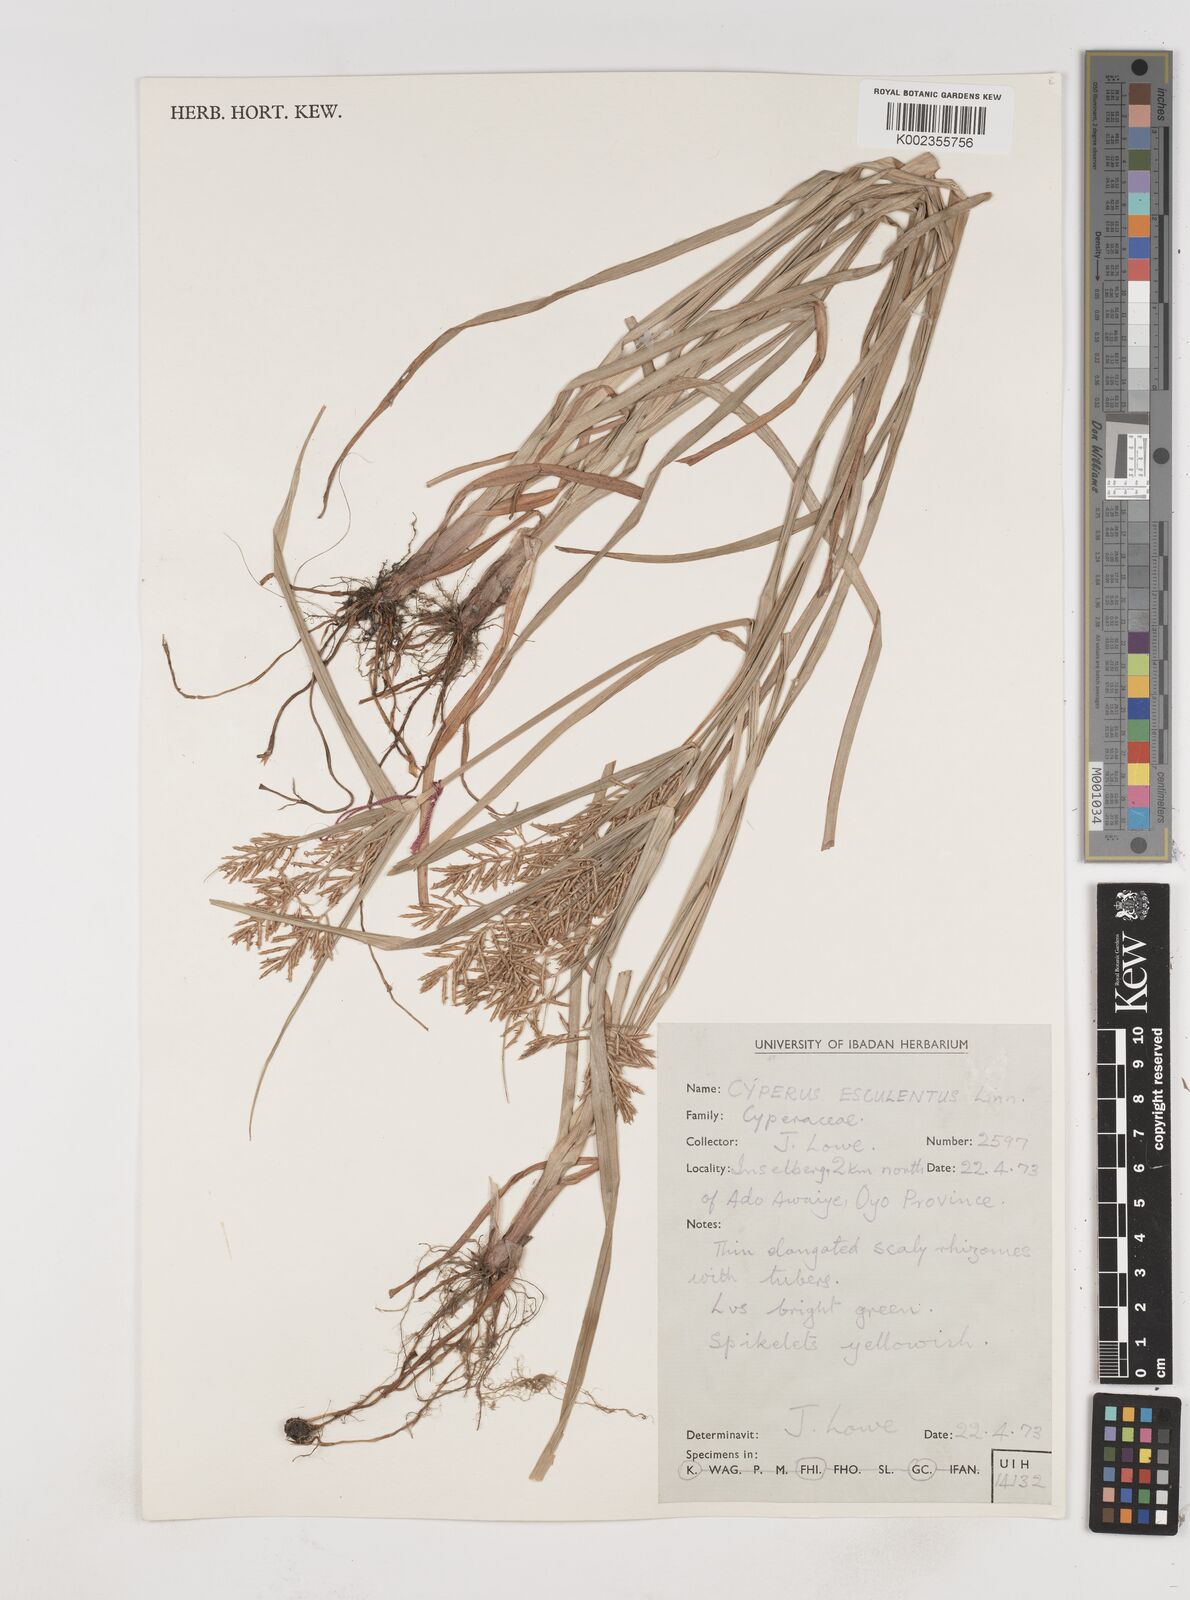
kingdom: Plantae
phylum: Tracheophyta
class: Liliopsida
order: Poales
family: Cyperaceae
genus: Cyperus
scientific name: Cyperus esculentus
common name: Yellow nutsedge
